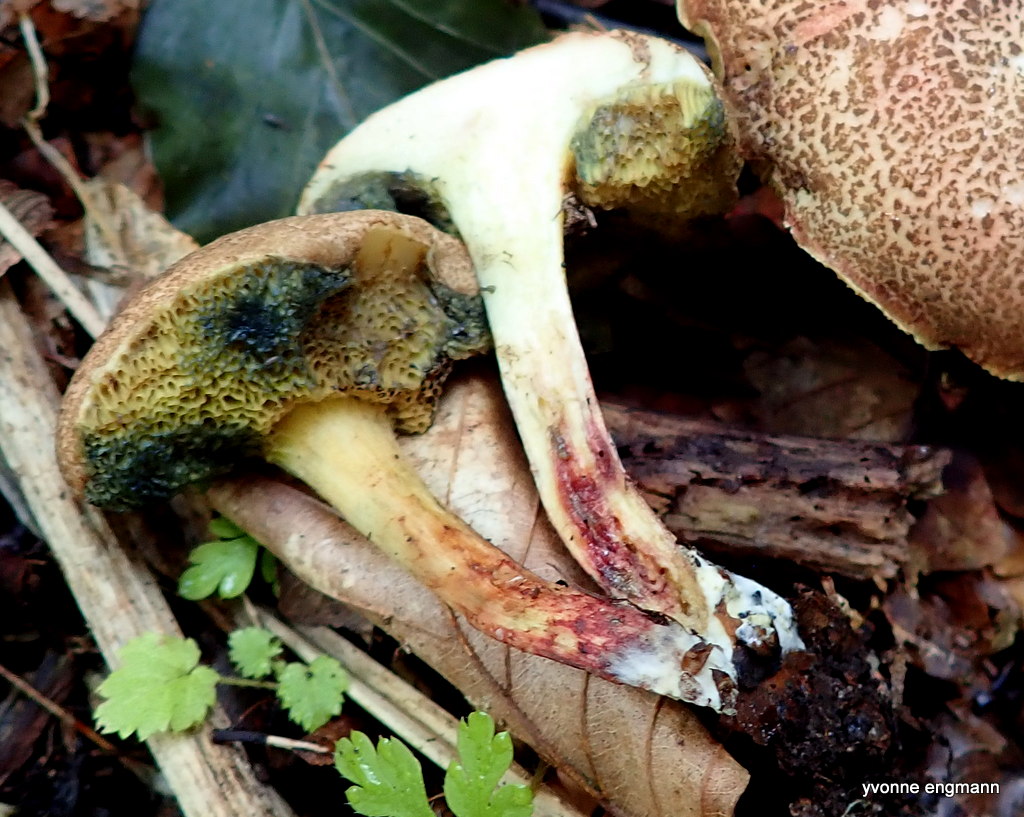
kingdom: Fungi
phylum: Basidiomycota
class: Agaricomycetes
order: Boletales
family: Boletaceae
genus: Xerocomellus
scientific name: Xerocomellus cisalpinus
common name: finsprukken rørhat
